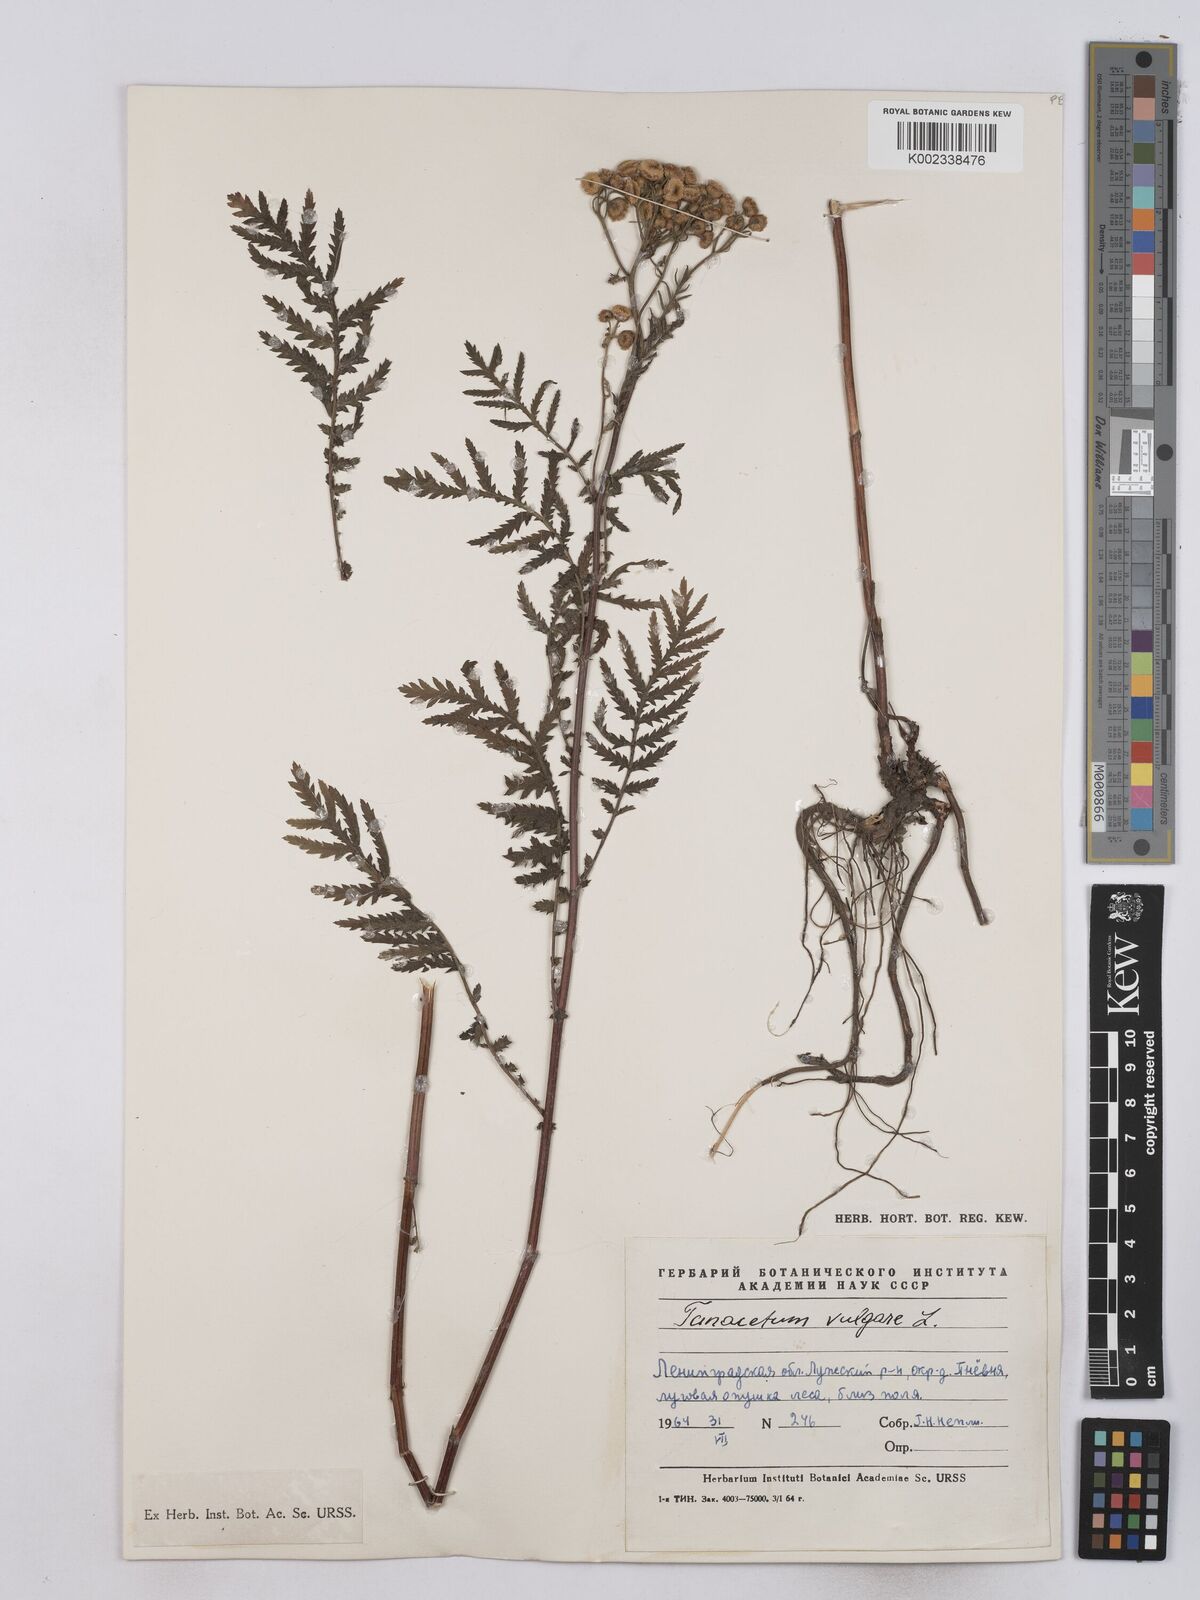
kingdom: Plantae
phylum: Tracheophyta
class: Magnoliopsida
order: Asterales
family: Asteraceae
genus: Tanacetum
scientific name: Tanacetum vulgare
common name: Common tansy
